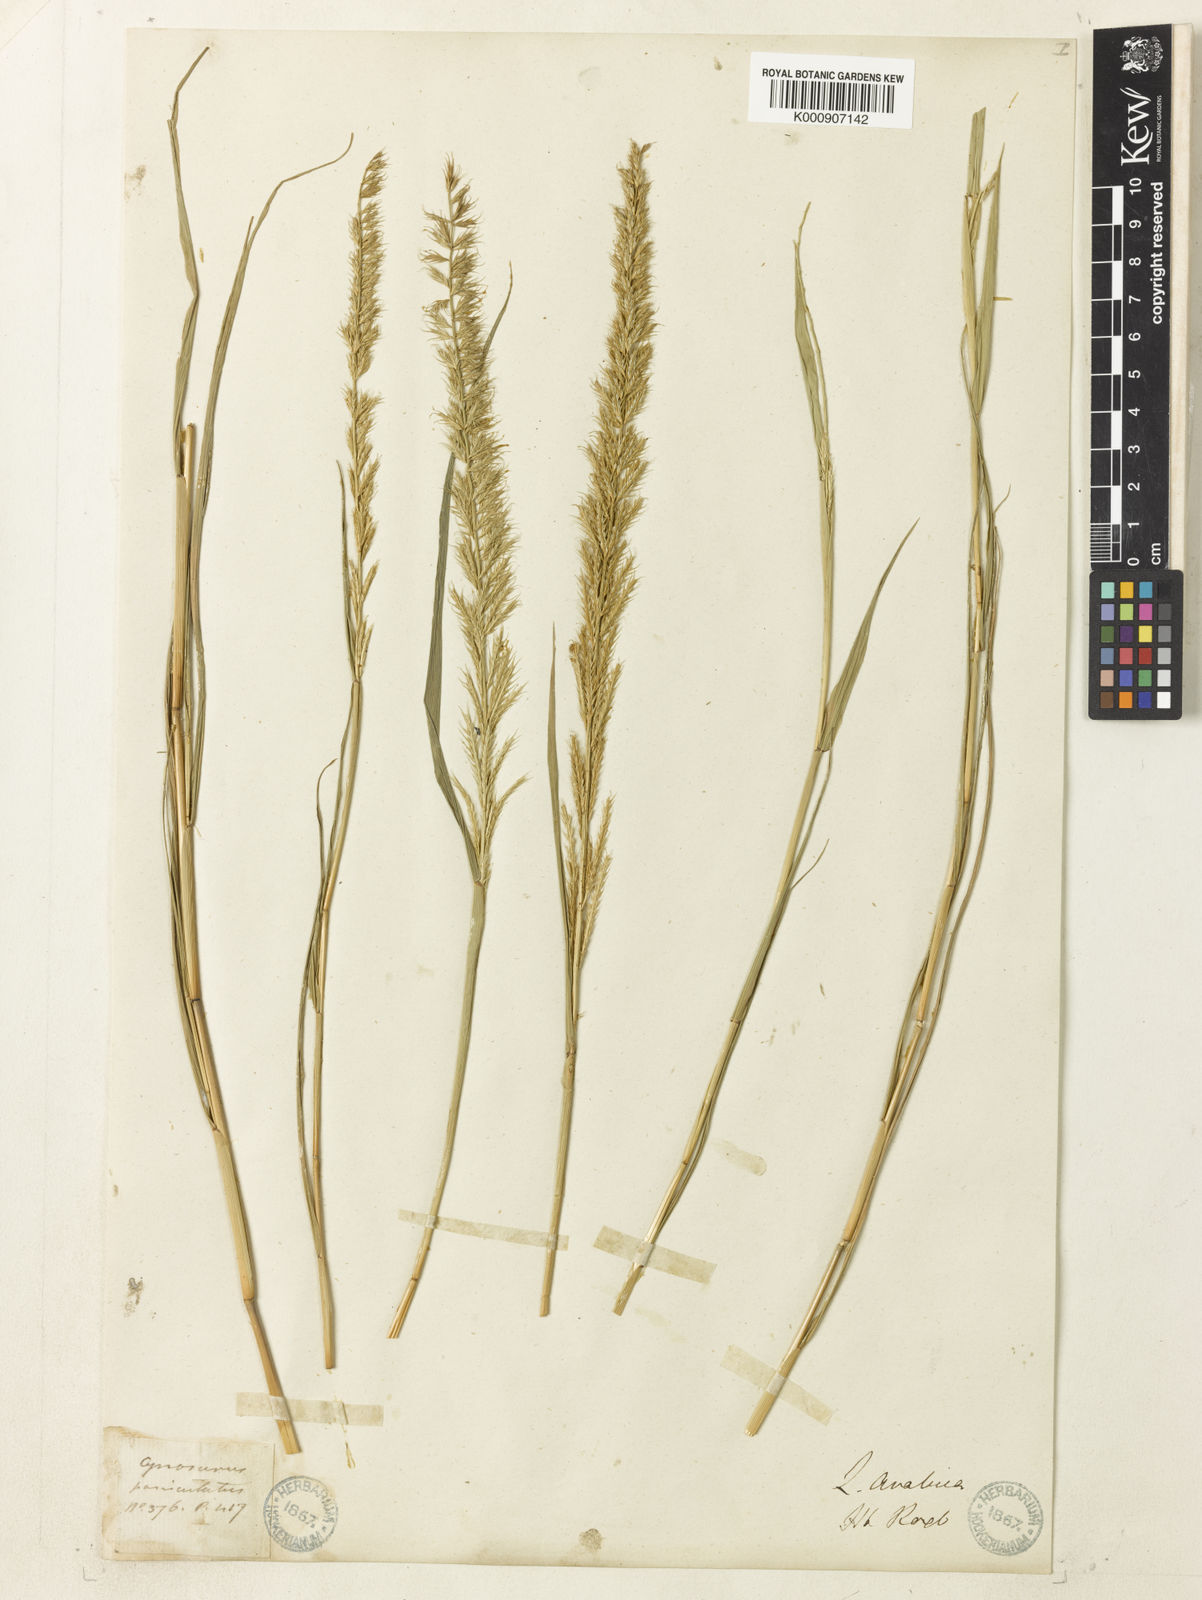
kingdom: Plantae
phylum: Tracheophyta
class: Liliopsida
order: Poales
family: Poaceae
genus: Dinebra
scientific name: Dinebra retroflexa
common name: Viper grass
